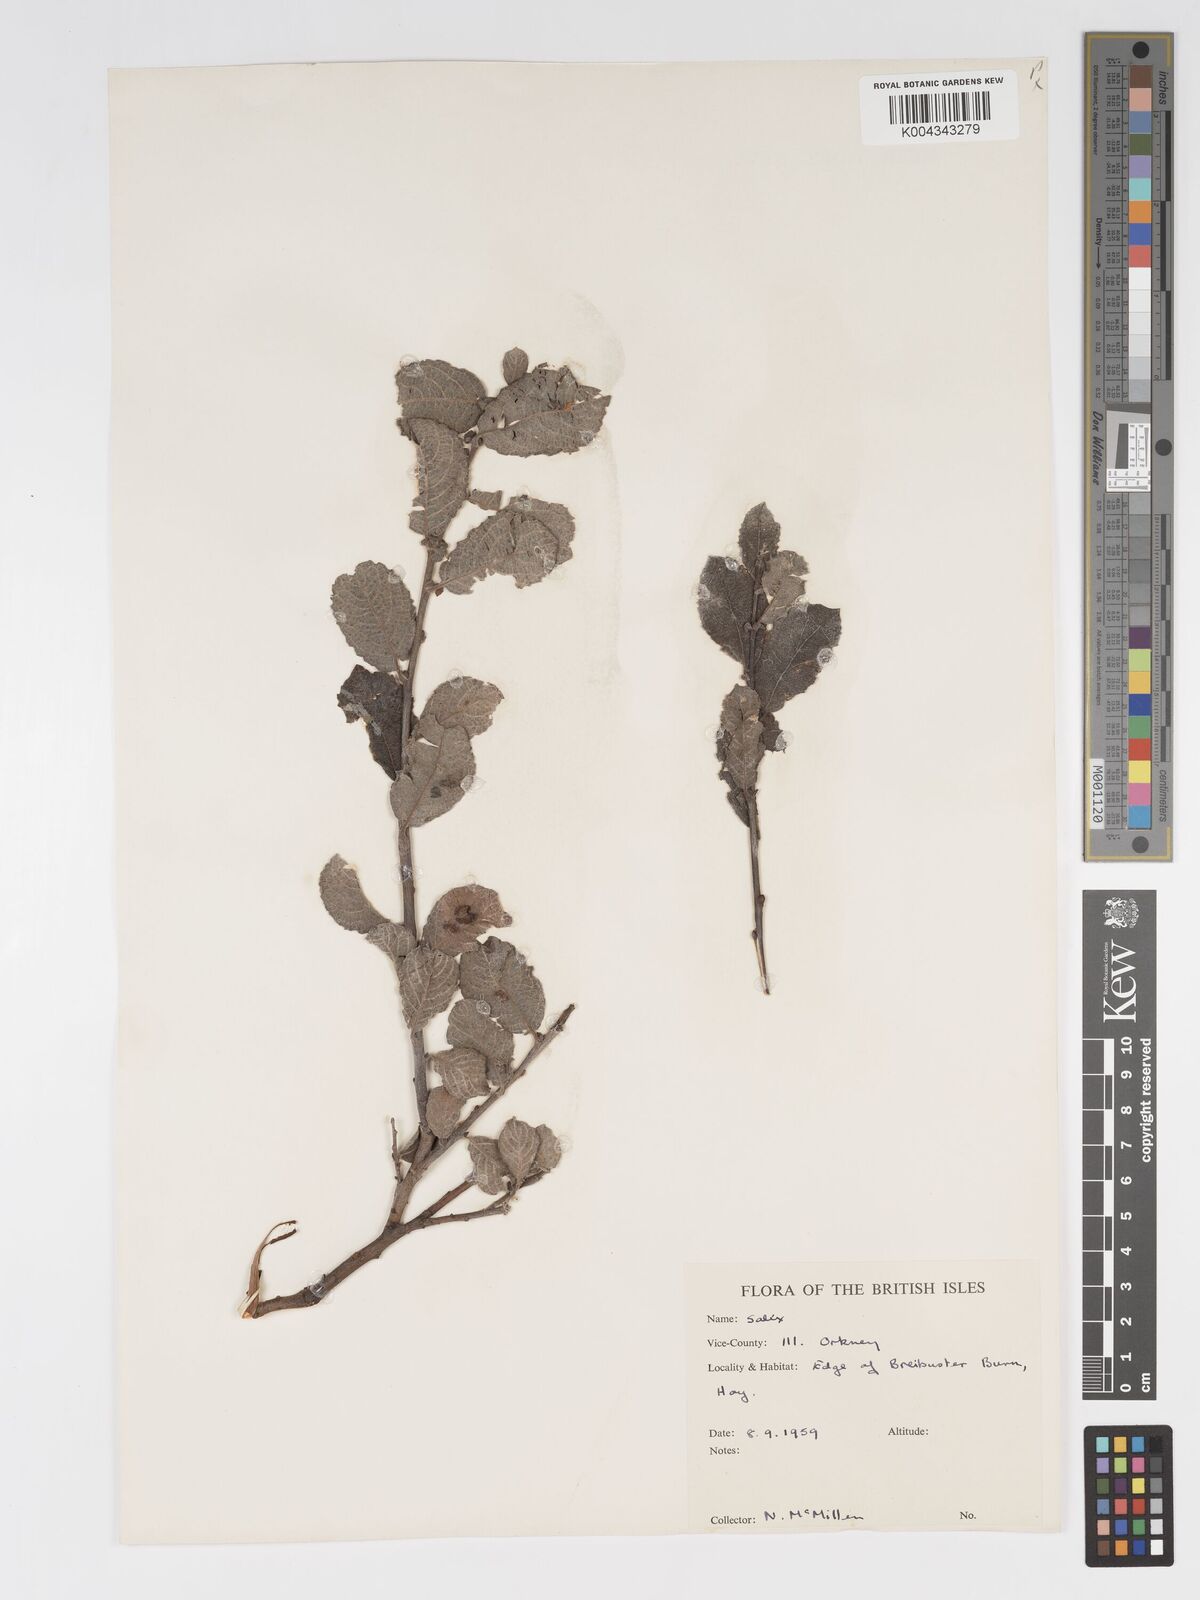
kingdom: Plantae
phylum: Tracheophyta
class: Magnoliopsida
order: Malpighiales
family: Salicaceae
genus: Salix
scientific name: Salix aurita
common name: Eared willow
